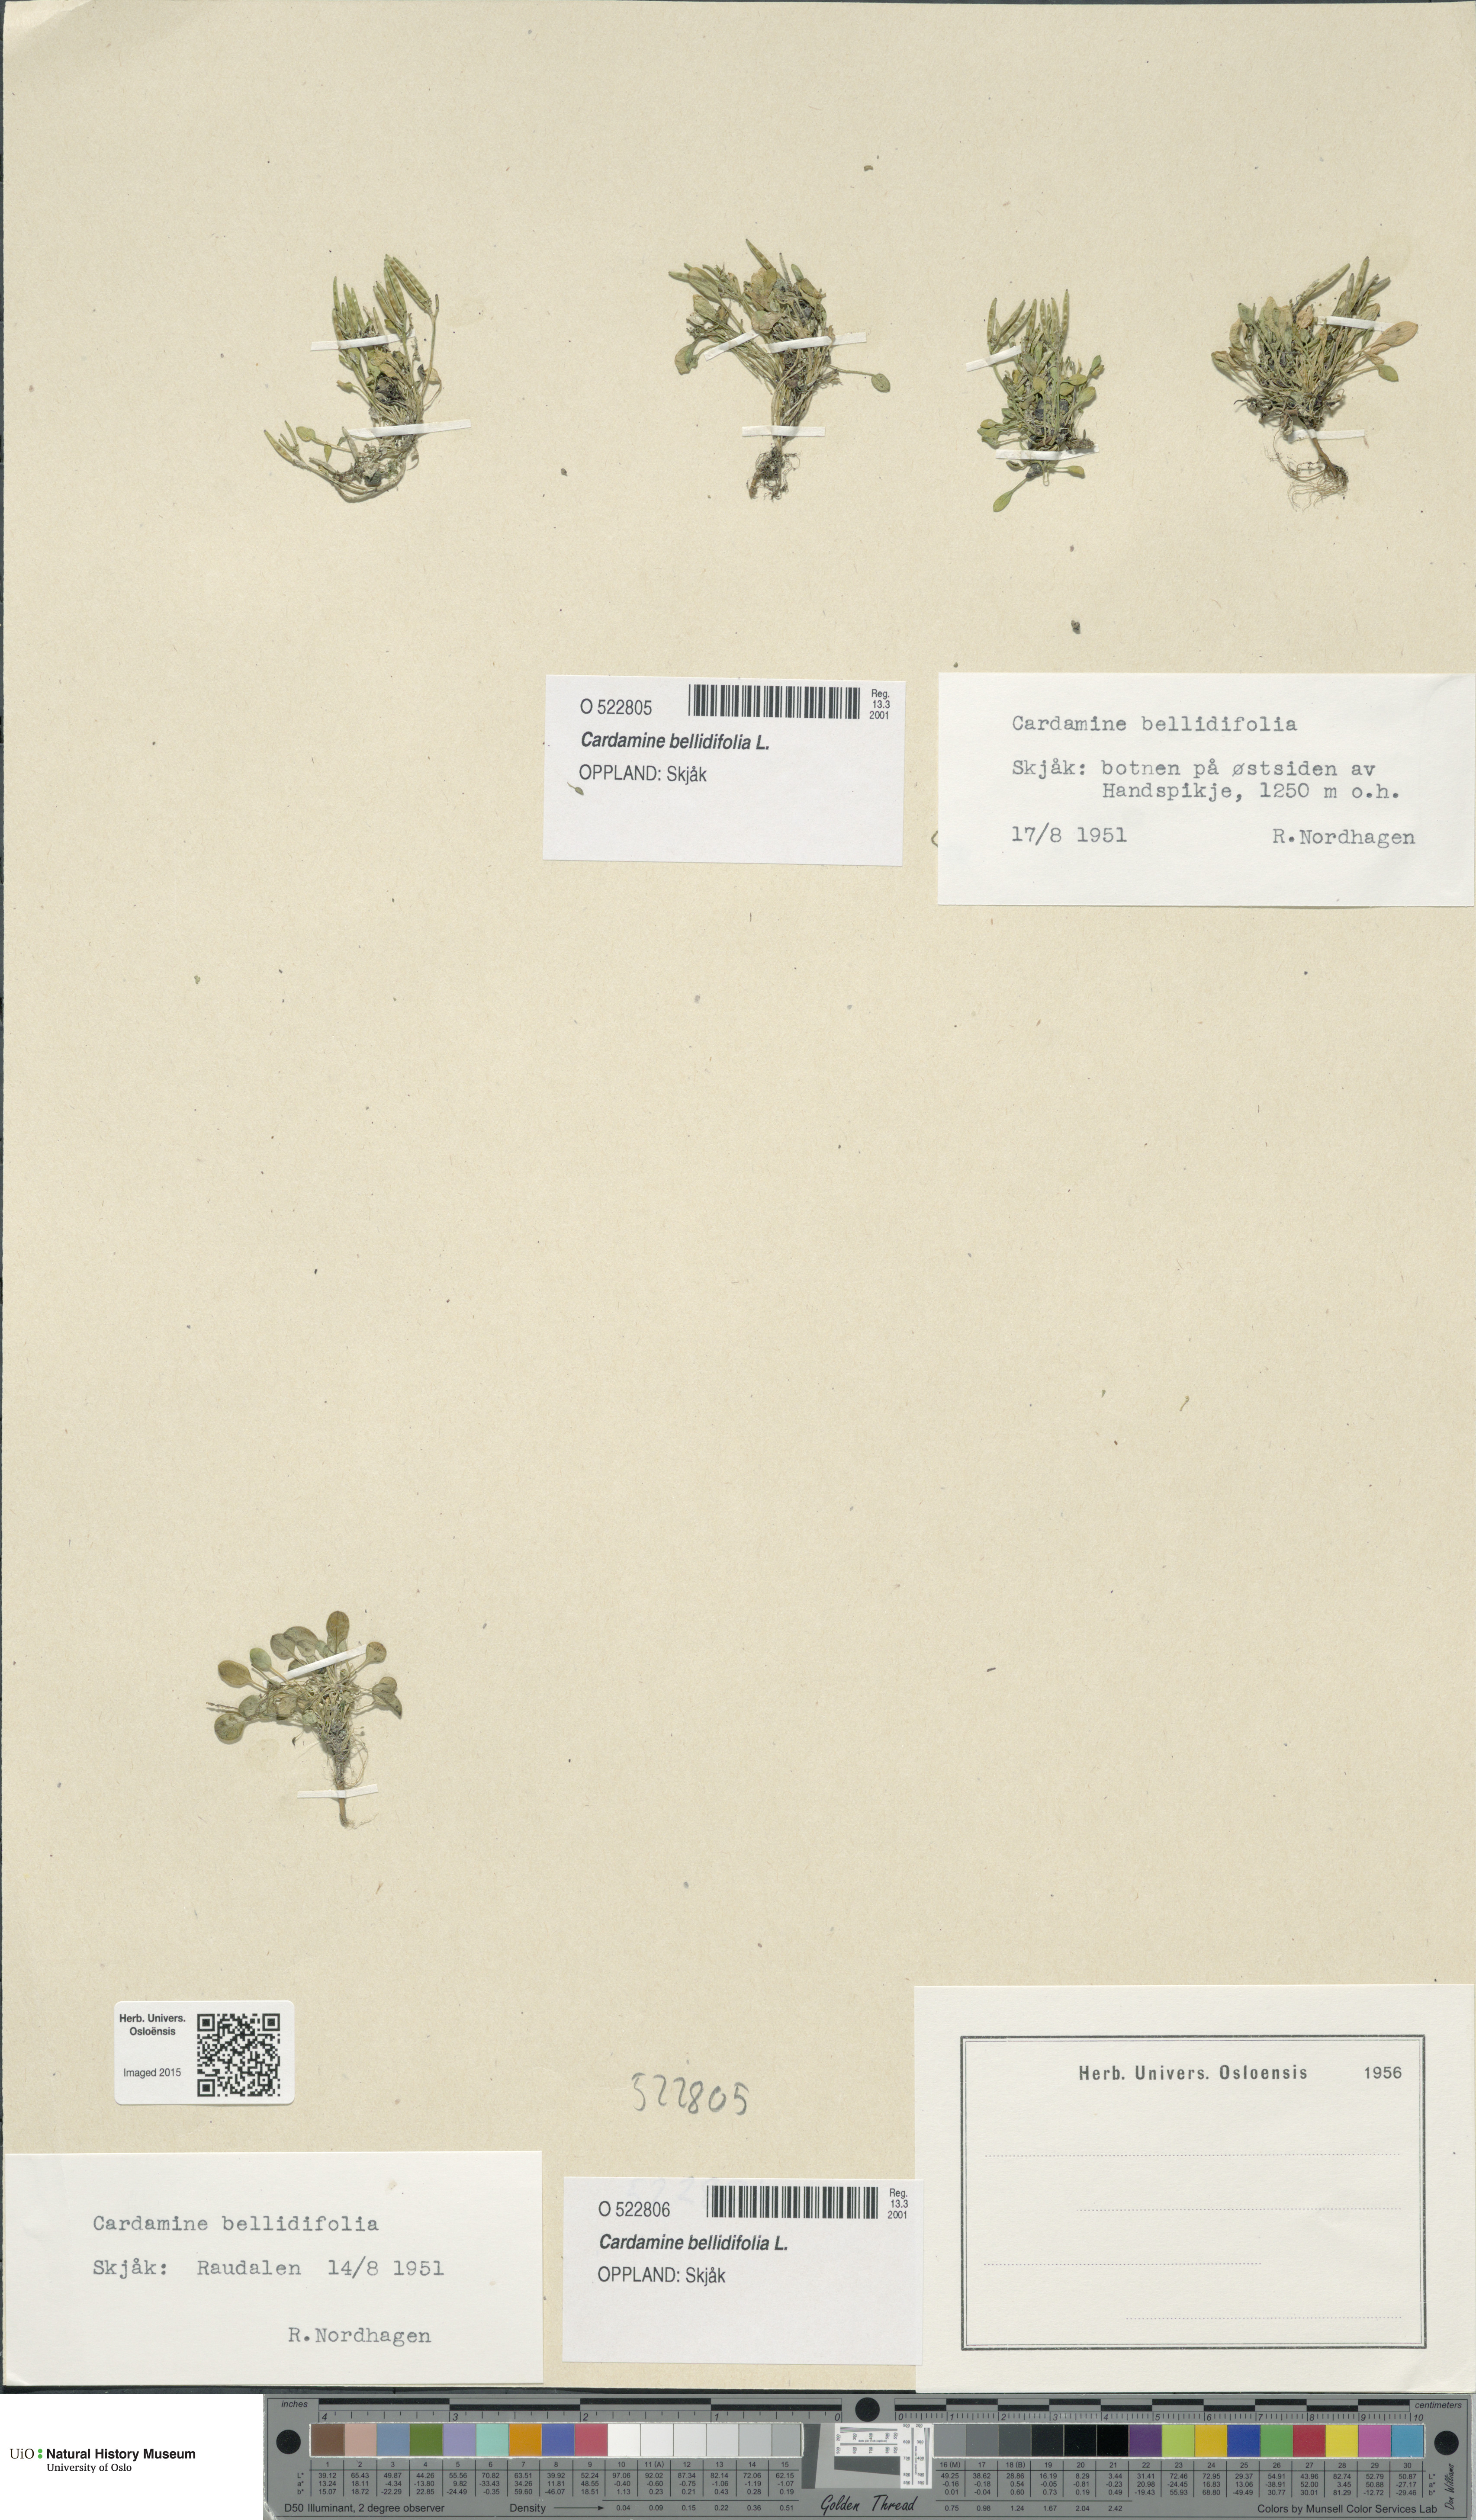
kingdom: Plantae
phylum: Tracheophyta
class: Magnoliopsida
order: Brassicales
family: Brassicaceae
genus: Cardamine
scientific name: Cardamine bellidifolia
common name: Alpine bittercress
